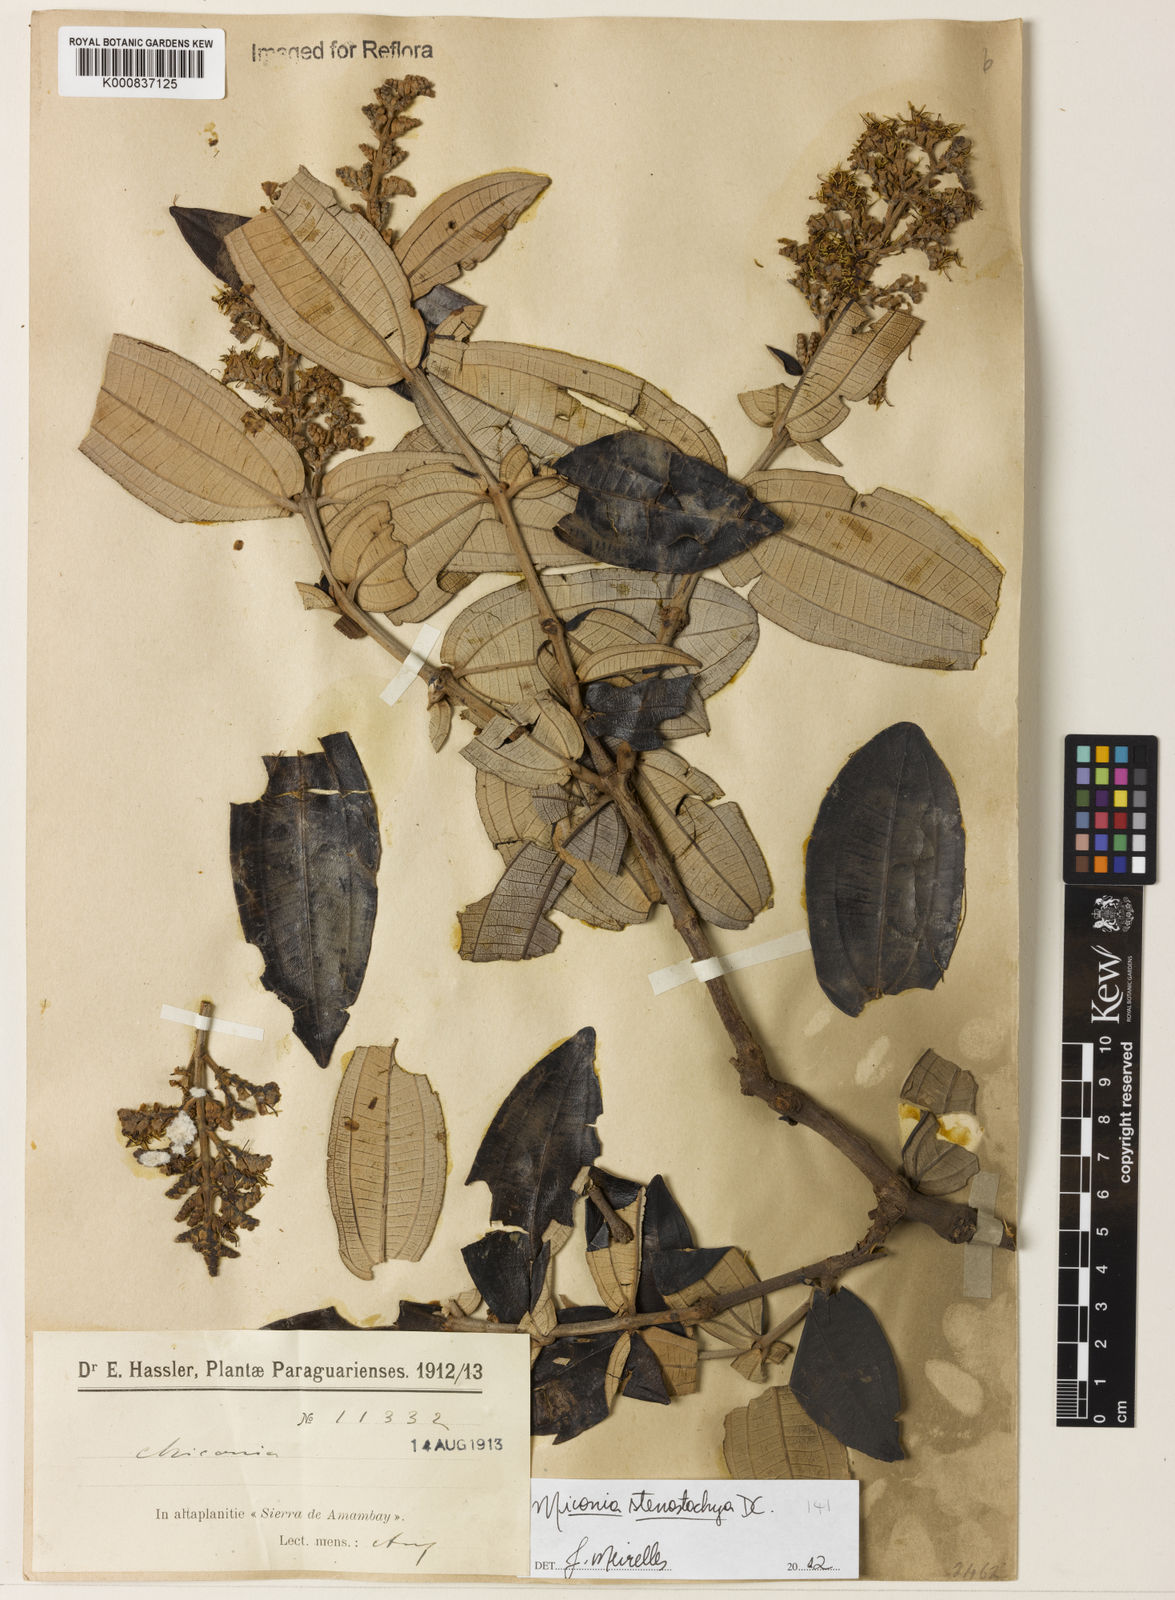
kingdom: Plantae
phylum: Tracheophyta
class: Magnoliopsida
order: Myrtales
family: Melastomataceae
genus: Miconia
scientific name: Miconia stenostachya
